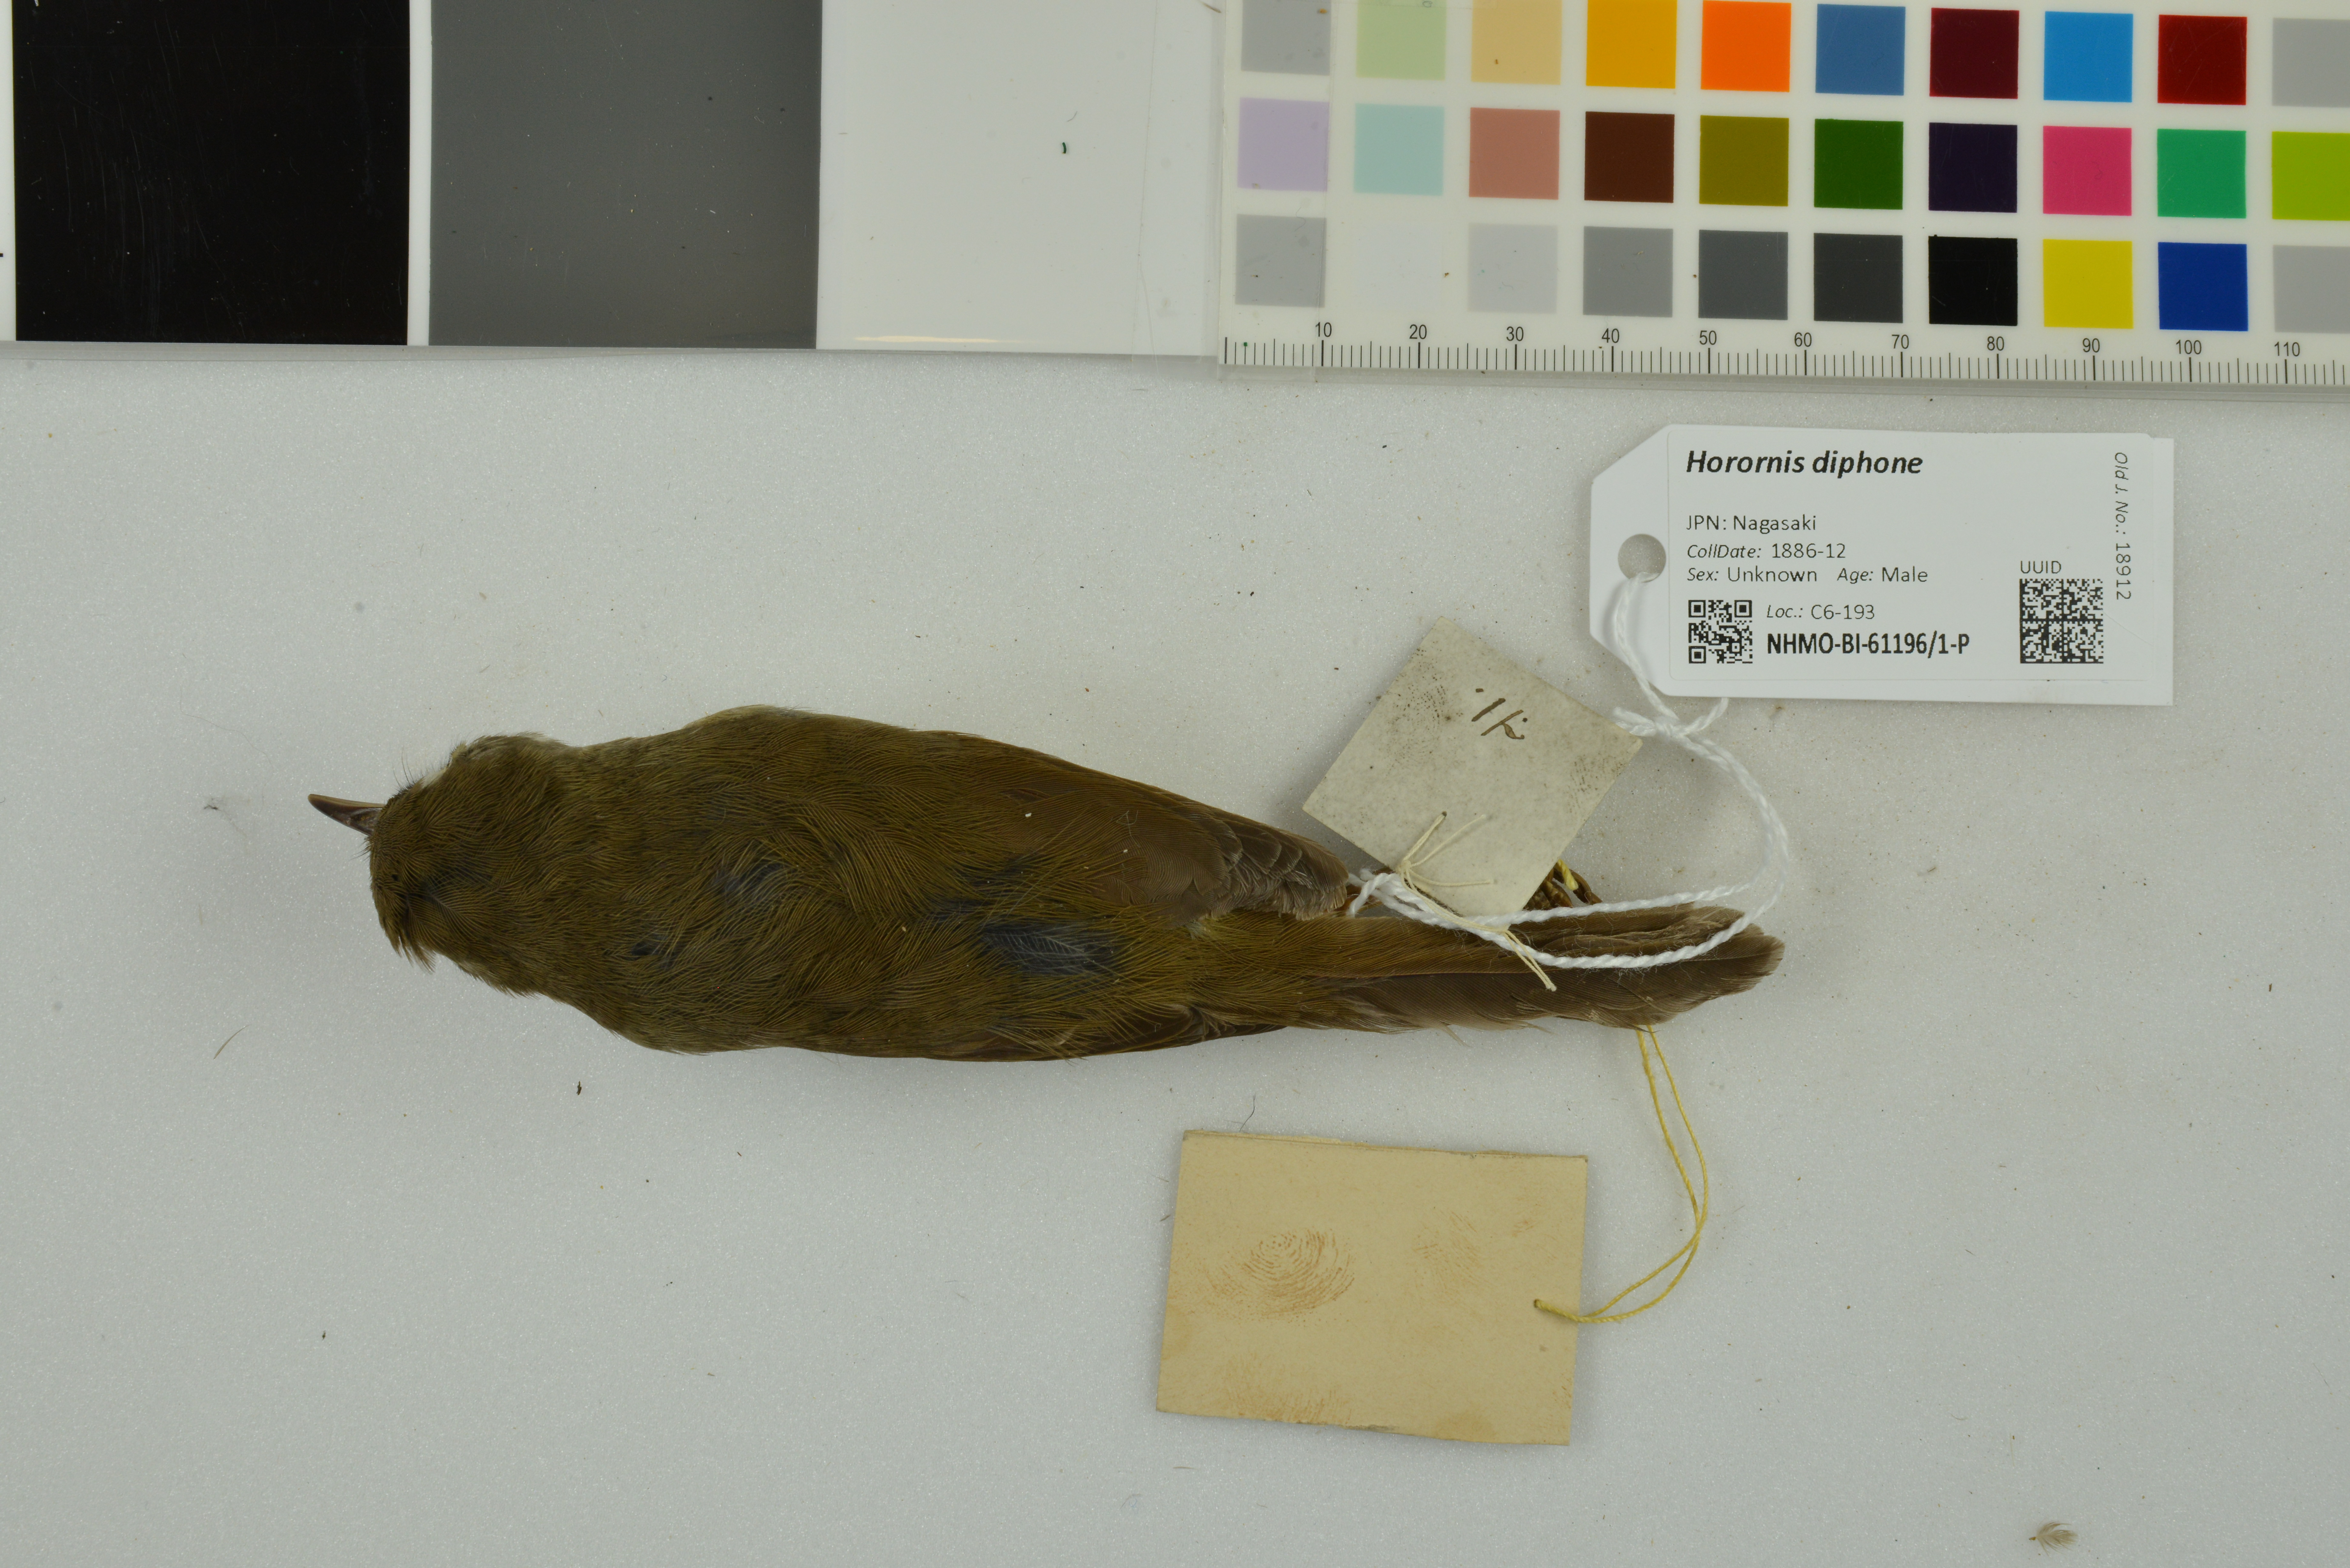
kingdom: Animalia
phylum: Chordata
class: Aves
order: Passeriformes
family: Cettiidae
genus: Horornis
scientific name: Horornis diphone
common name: Japanese bush warbler
